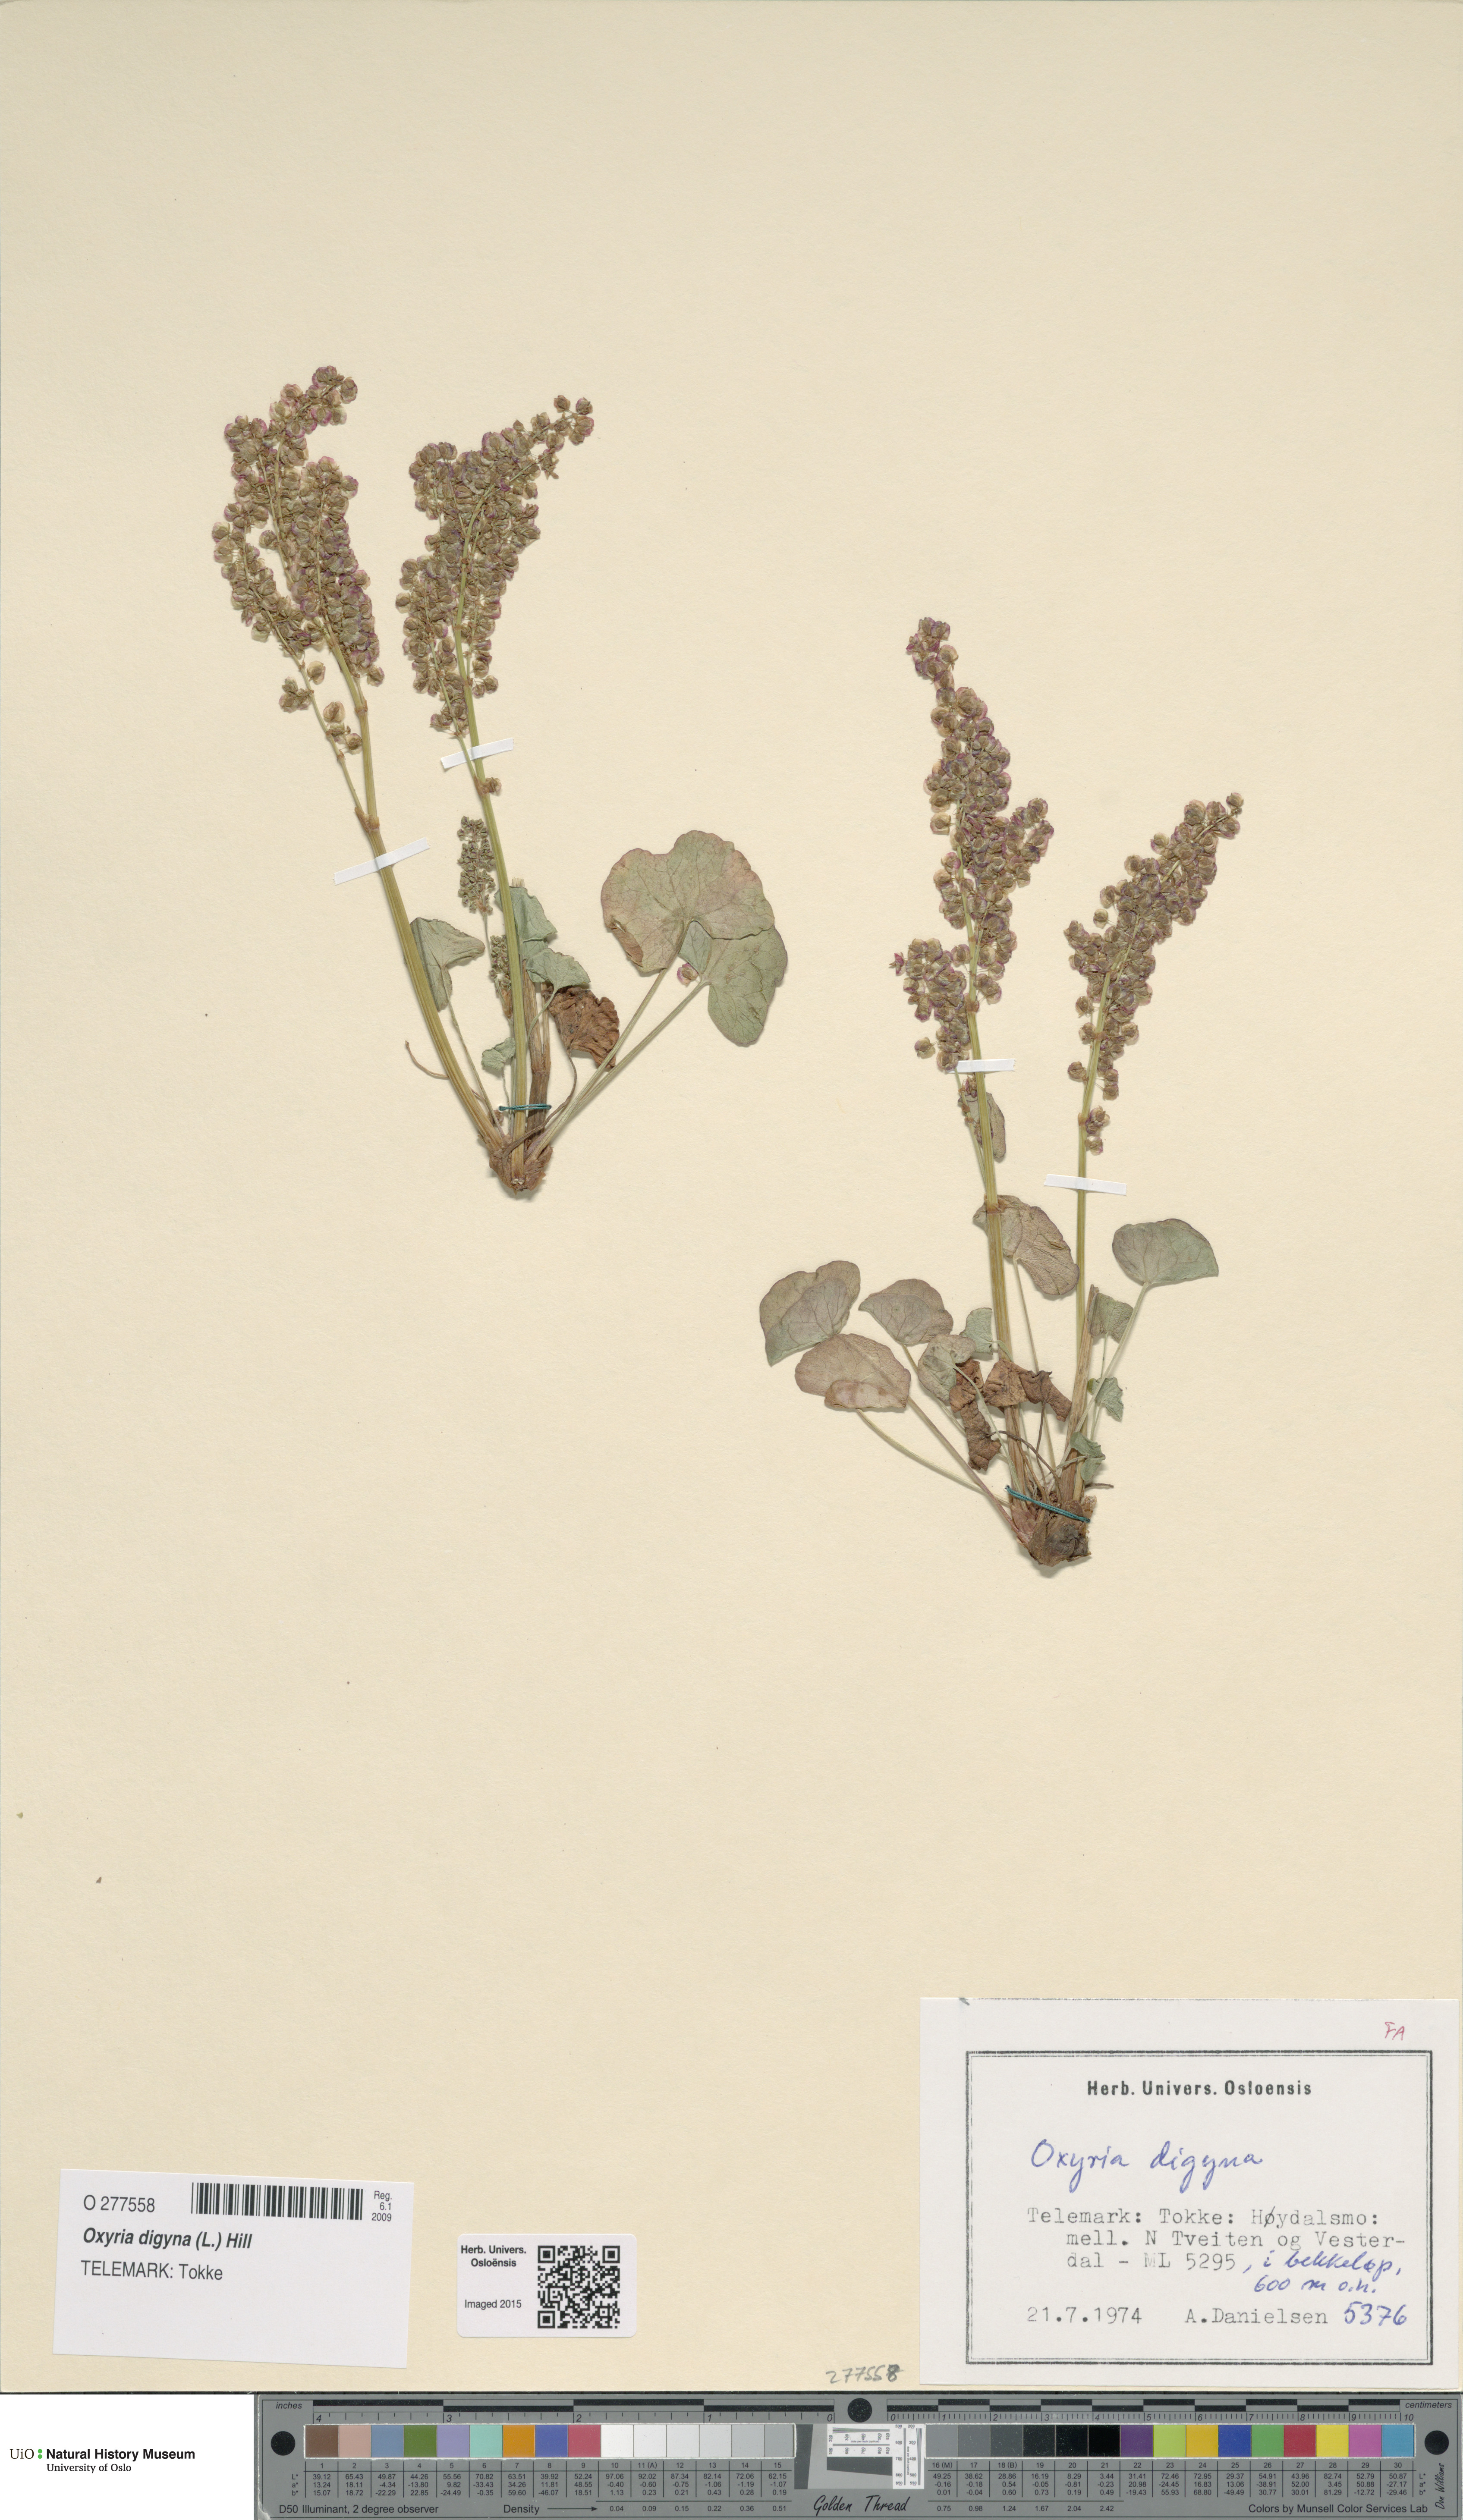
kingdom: Plantae
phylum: Tracheophyta
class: Magnoliopsida
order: Caryophyllales
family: Polygonaceae
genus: Oxyria
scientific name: Oxyria digyna
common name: Alpine mountain-sorrel
